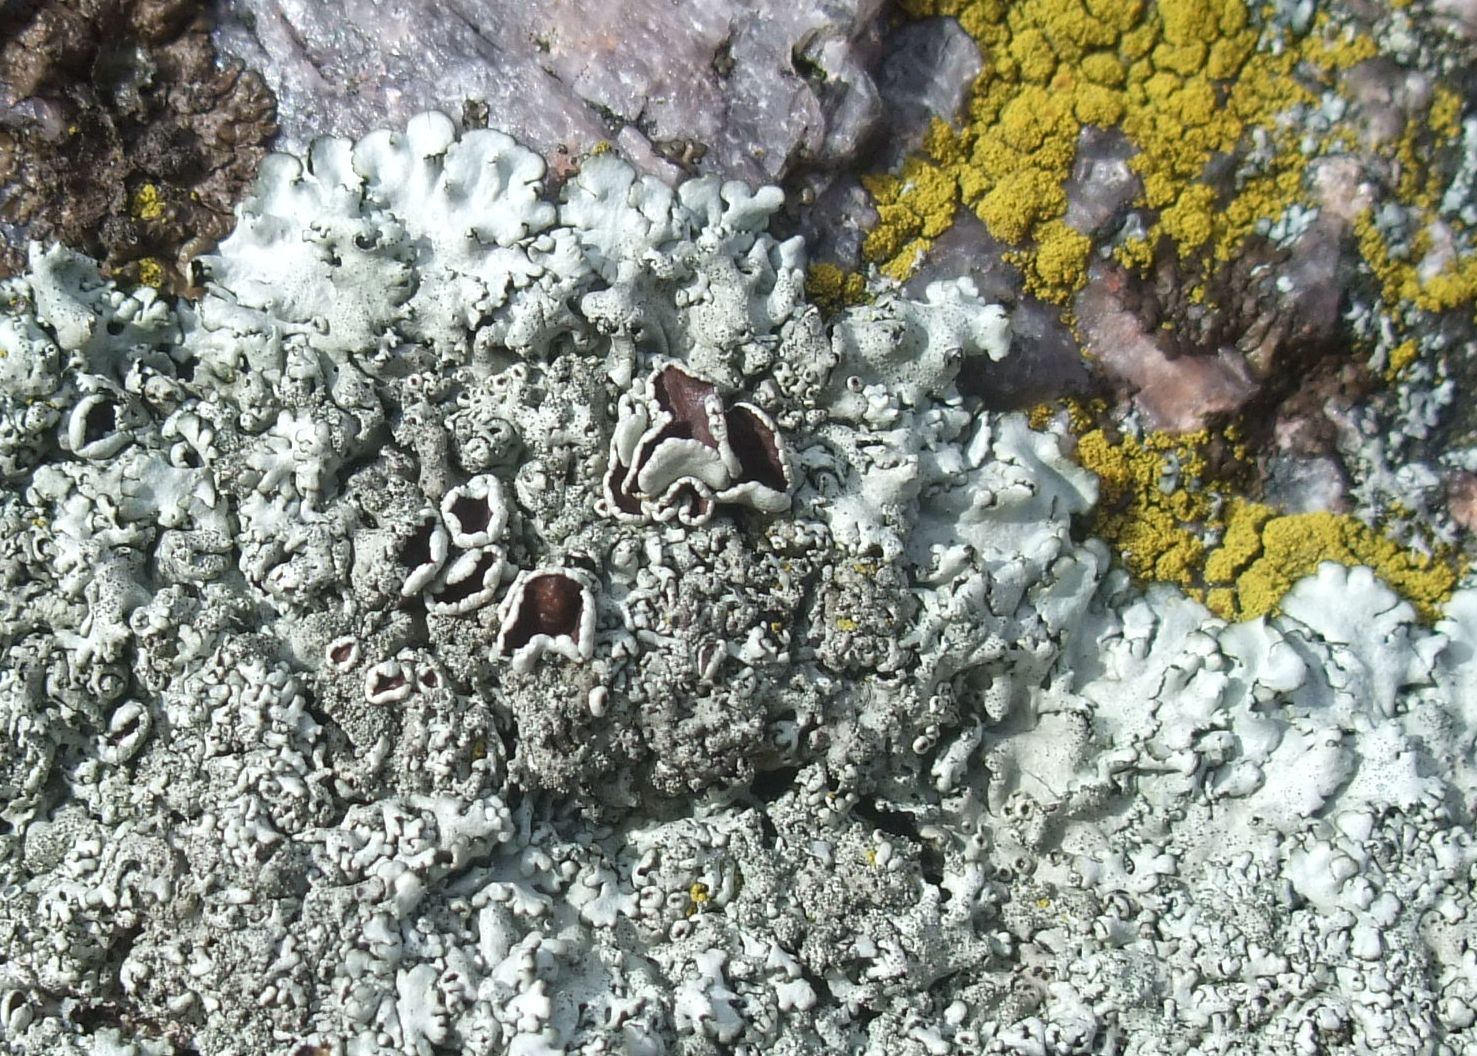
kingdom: Fungi
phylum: Ascomycota
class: Lecanoromycetes
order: Lecanorales
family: Parmeliaceae
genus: Xanthoparmelia
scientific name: Xanthoparmelia conspersa
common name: messing-skållav
